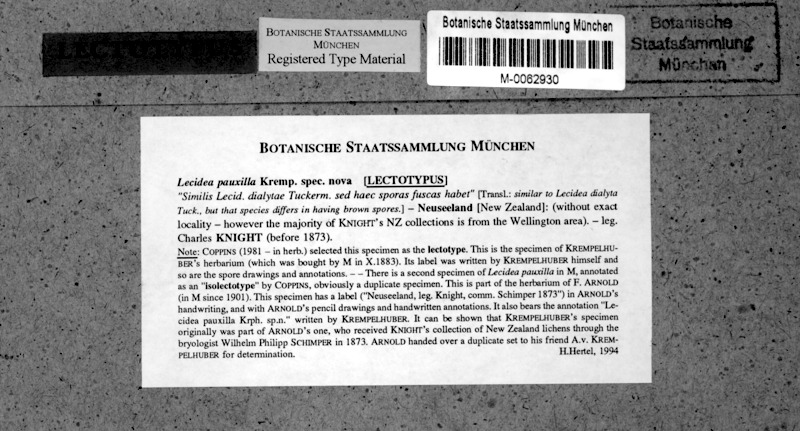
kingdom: Fungi
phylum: Ascomycota
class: Lecanoromycetes
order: Lecanorales
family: Ramalinaceae
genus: Cliostomum
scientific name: Cliostomum griffithii
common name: Multicolored dot lichen
